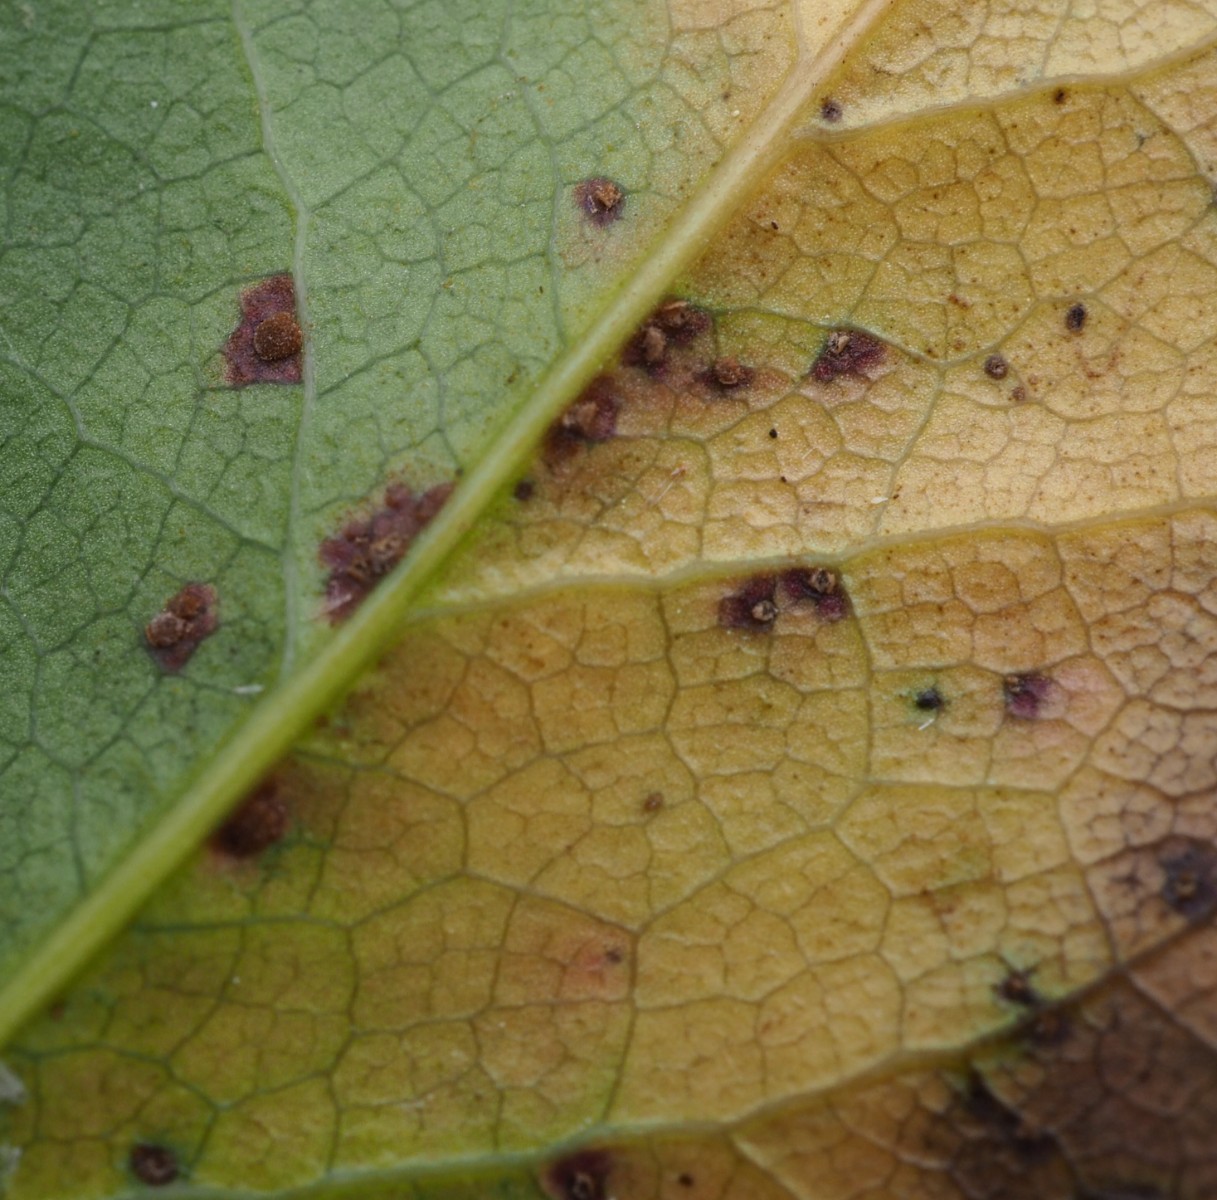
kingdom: Fungi
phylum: Basidiomycota
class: Pucciniomycetes
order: Pucciniales
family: Pucciniaceae
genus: Cumminsiella
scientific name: Cumminsiella mirabilissima
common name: mahonierust
